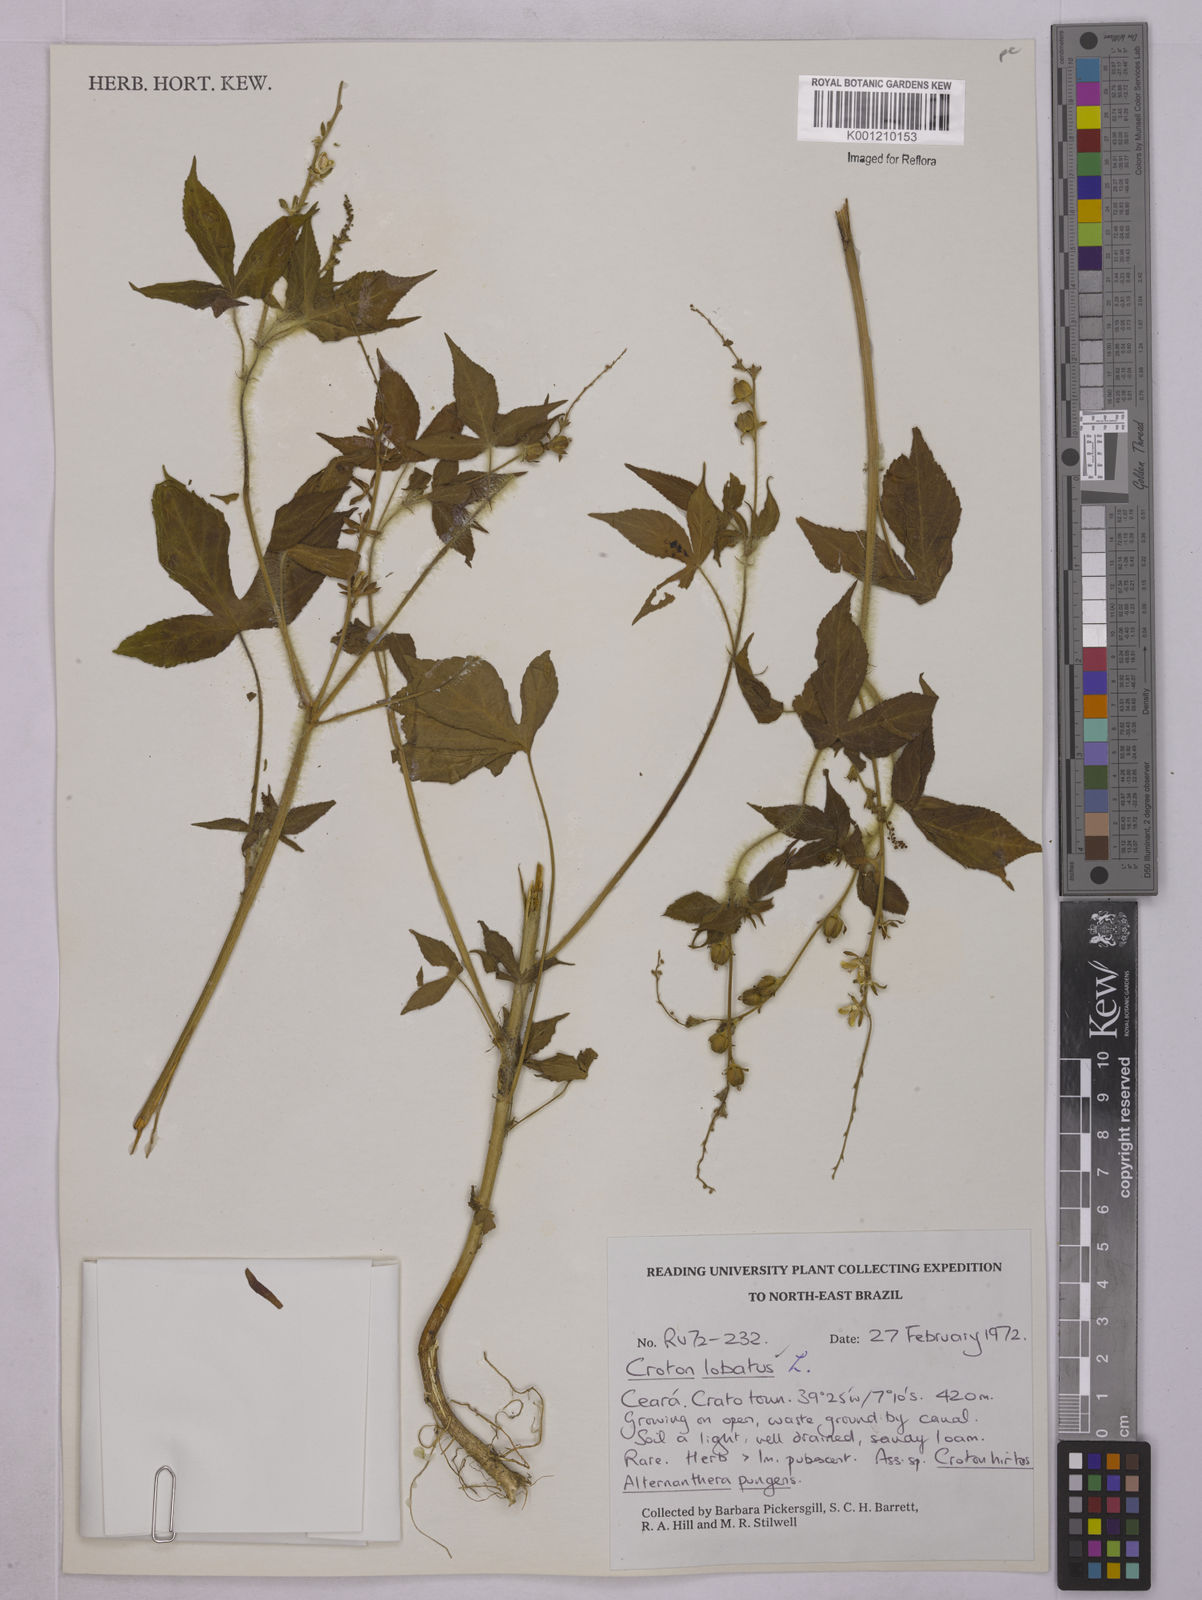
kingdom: Plantae
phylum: Tracheophyta
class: Magnoliopsida
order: Malpighiales
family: Euphorbiaceae
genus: Astraea
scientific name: Astraea lobata
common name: Lobed croton
